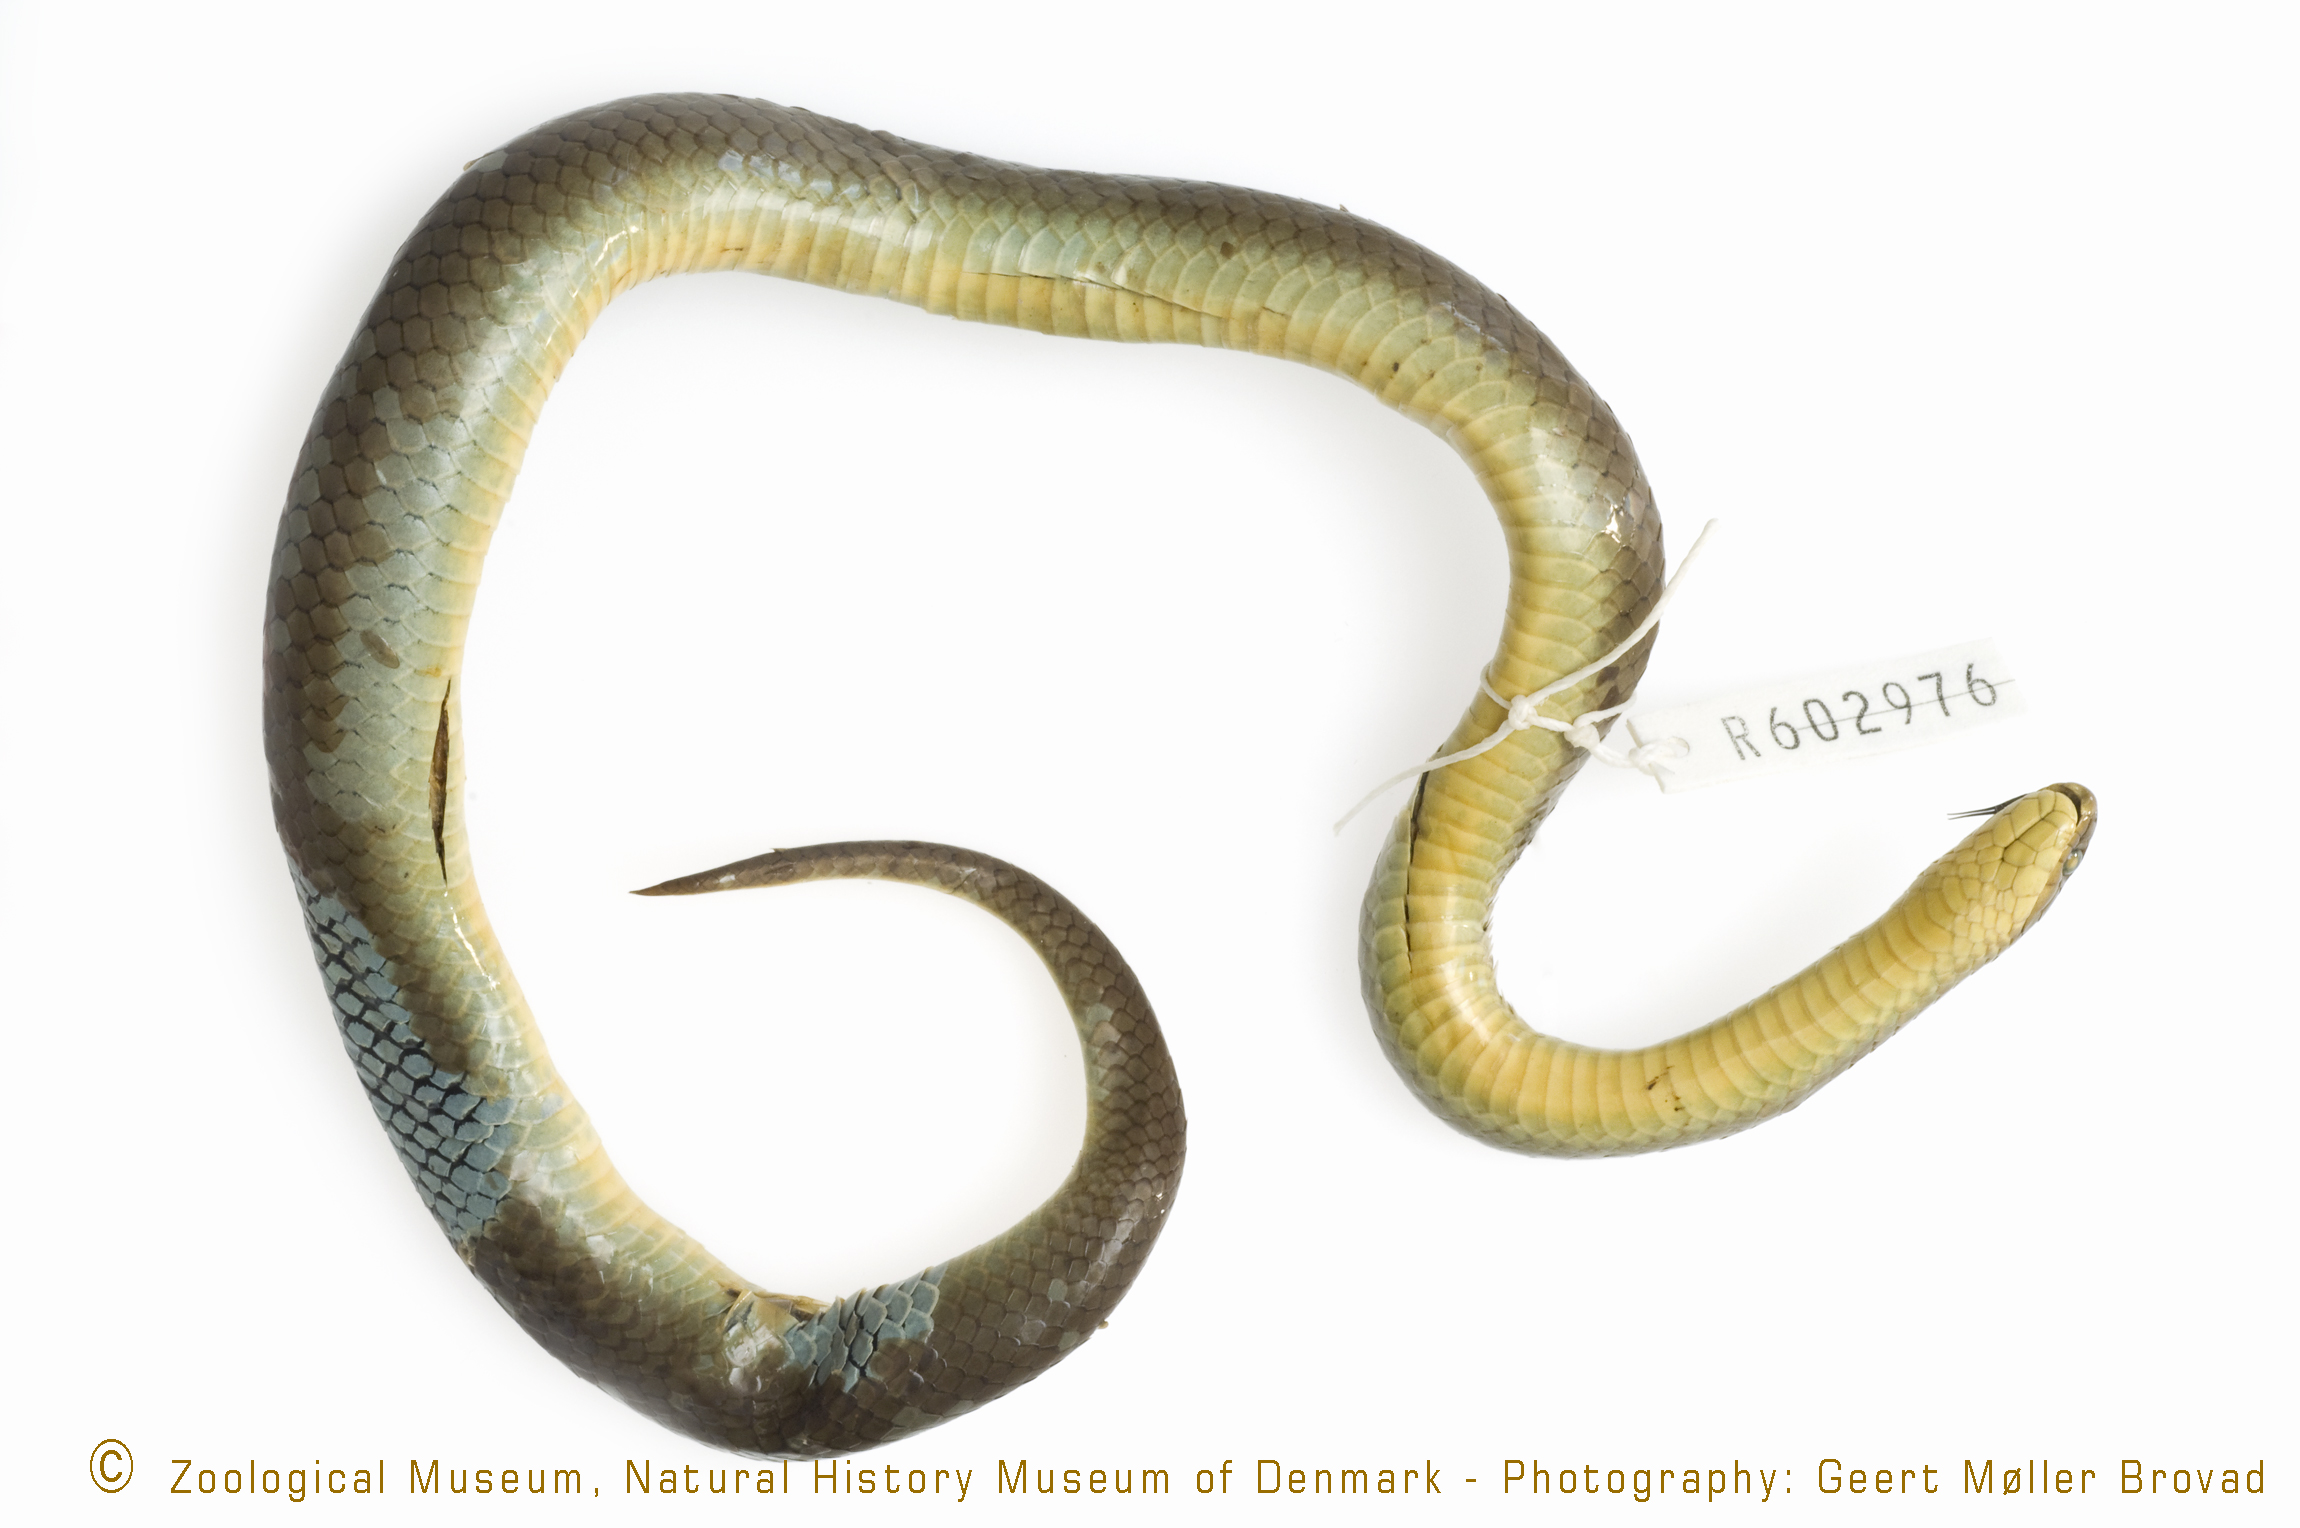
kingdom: Animalia
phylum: Chordata
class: Squamata
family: Pseudoxyrhophiidae
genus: Duberria
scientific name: Duberria lutrix
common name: Common slug eater
